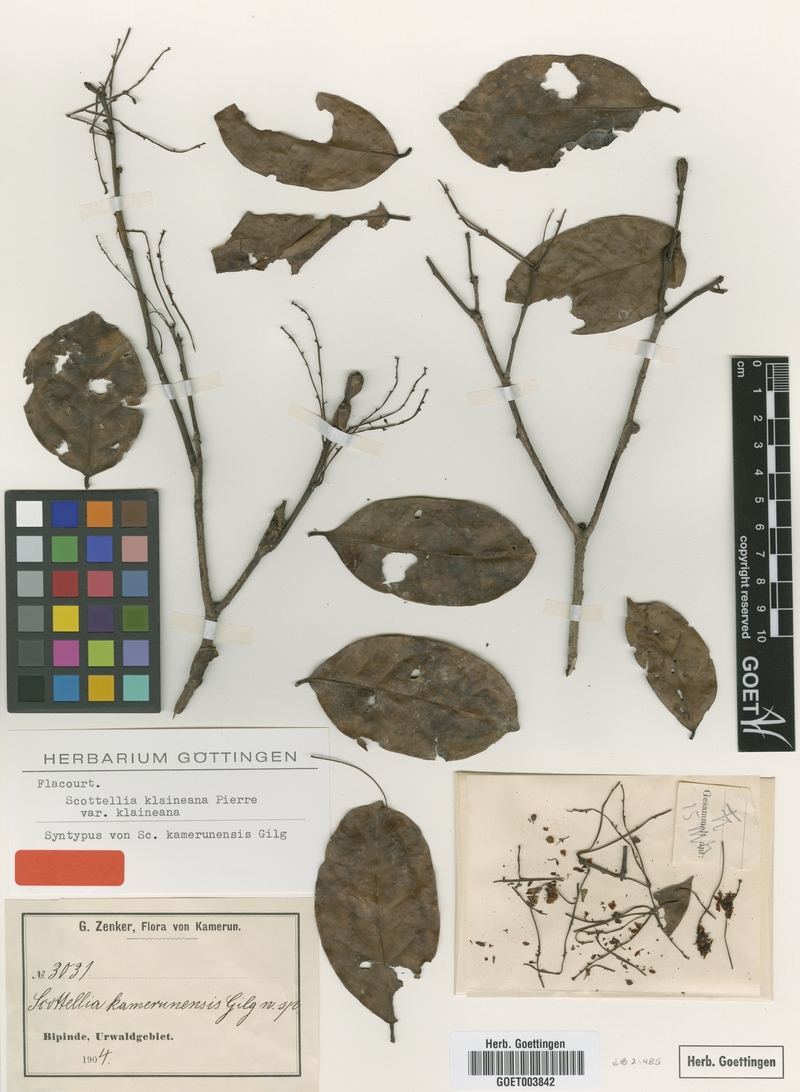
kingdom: Plantae
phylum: Tracheophyta
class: Magnoliopsida
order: Malpighiales
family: Achariaceae
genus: Scottellia
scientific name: Scottellia klaineana
